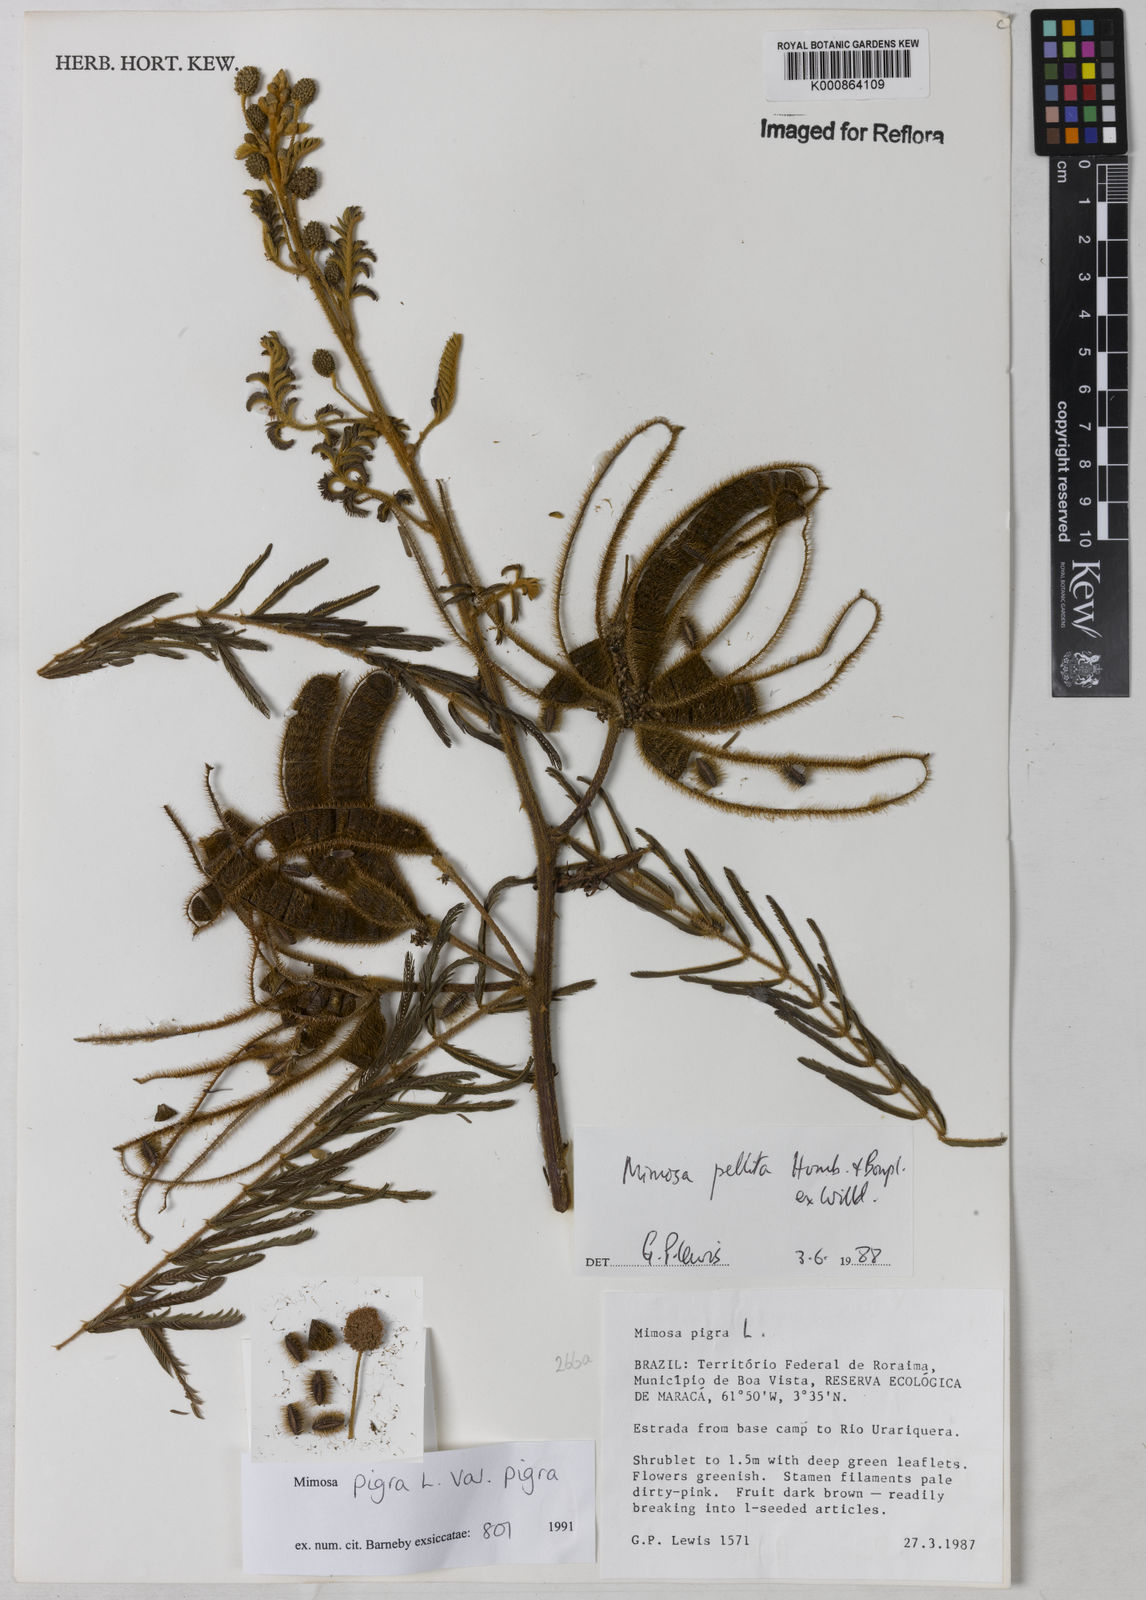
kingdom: Plantae
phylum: Tracheophyta
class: Magnoliopsida
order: Fabales
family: Fabaceae
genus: Mimosa
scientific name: Mimosa pigra
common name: Black mimosa
